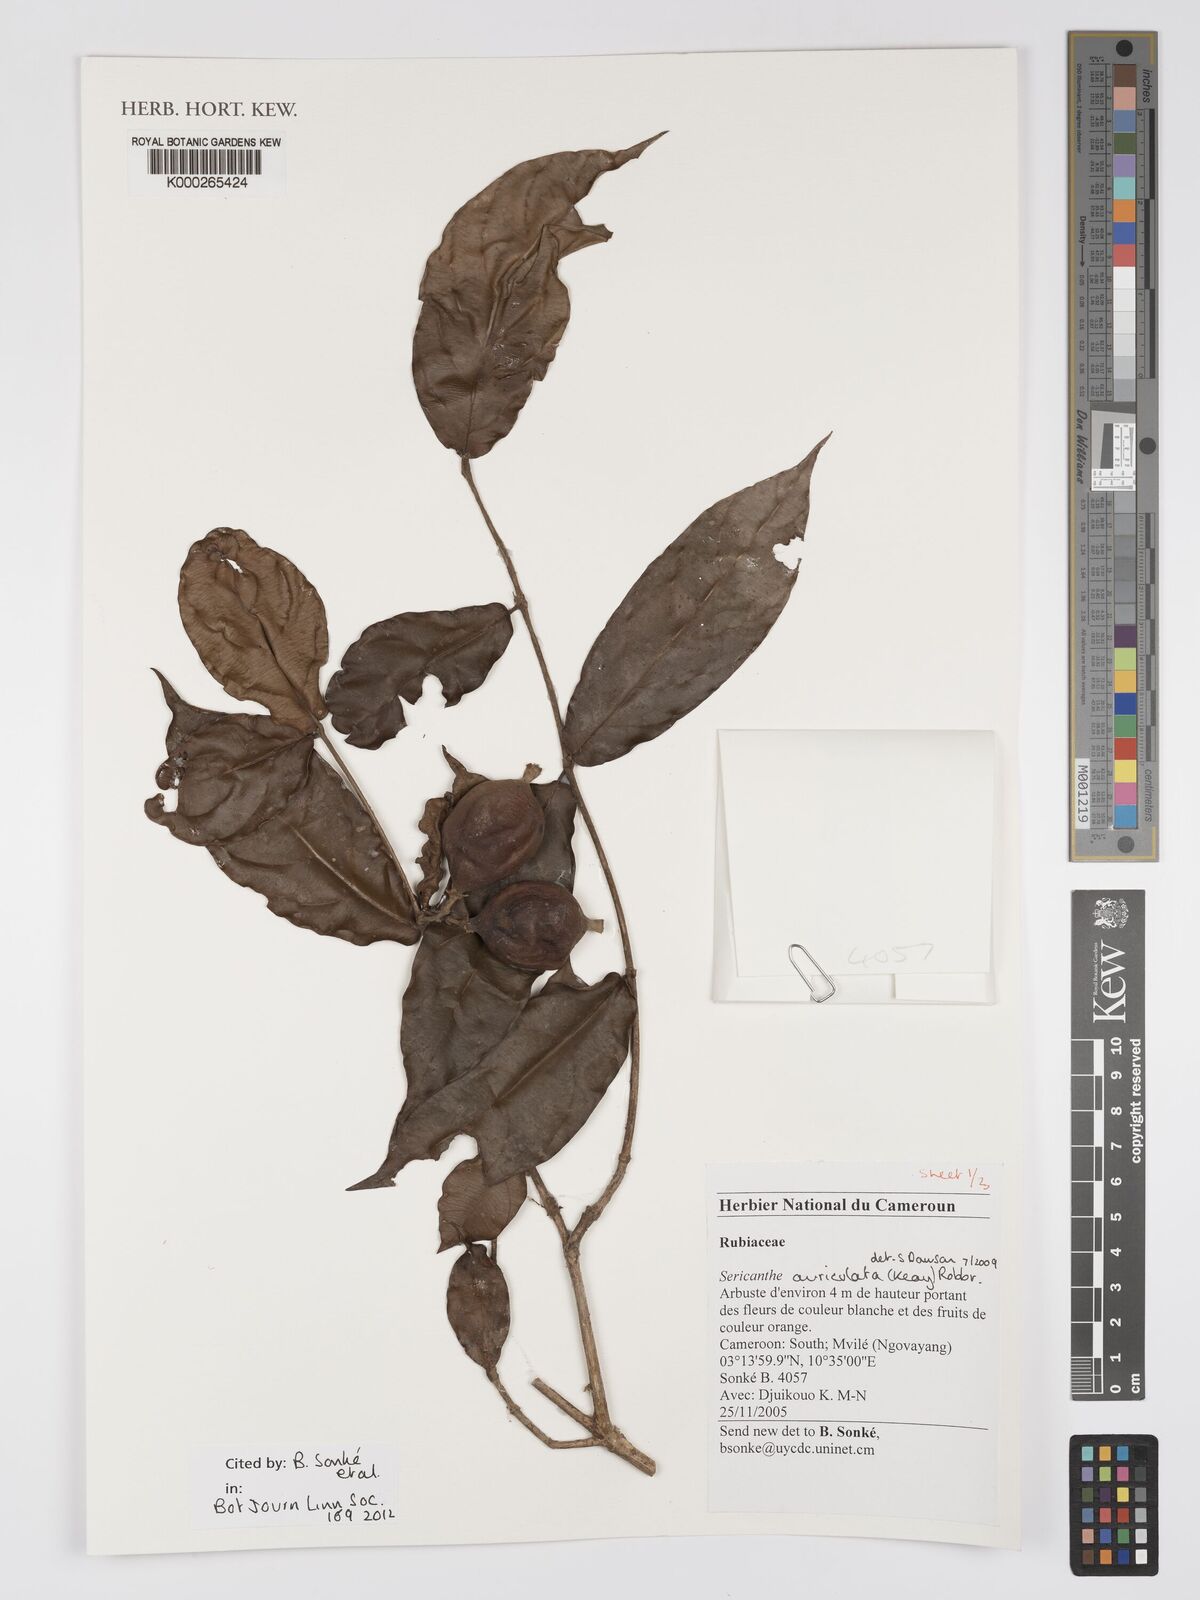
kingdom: Plantae
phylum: Tracheophyta
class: Magnoliopsida
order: Gentianales
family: Rubiaceae
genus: Sericanthe
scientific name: Sericanthe auriculata
